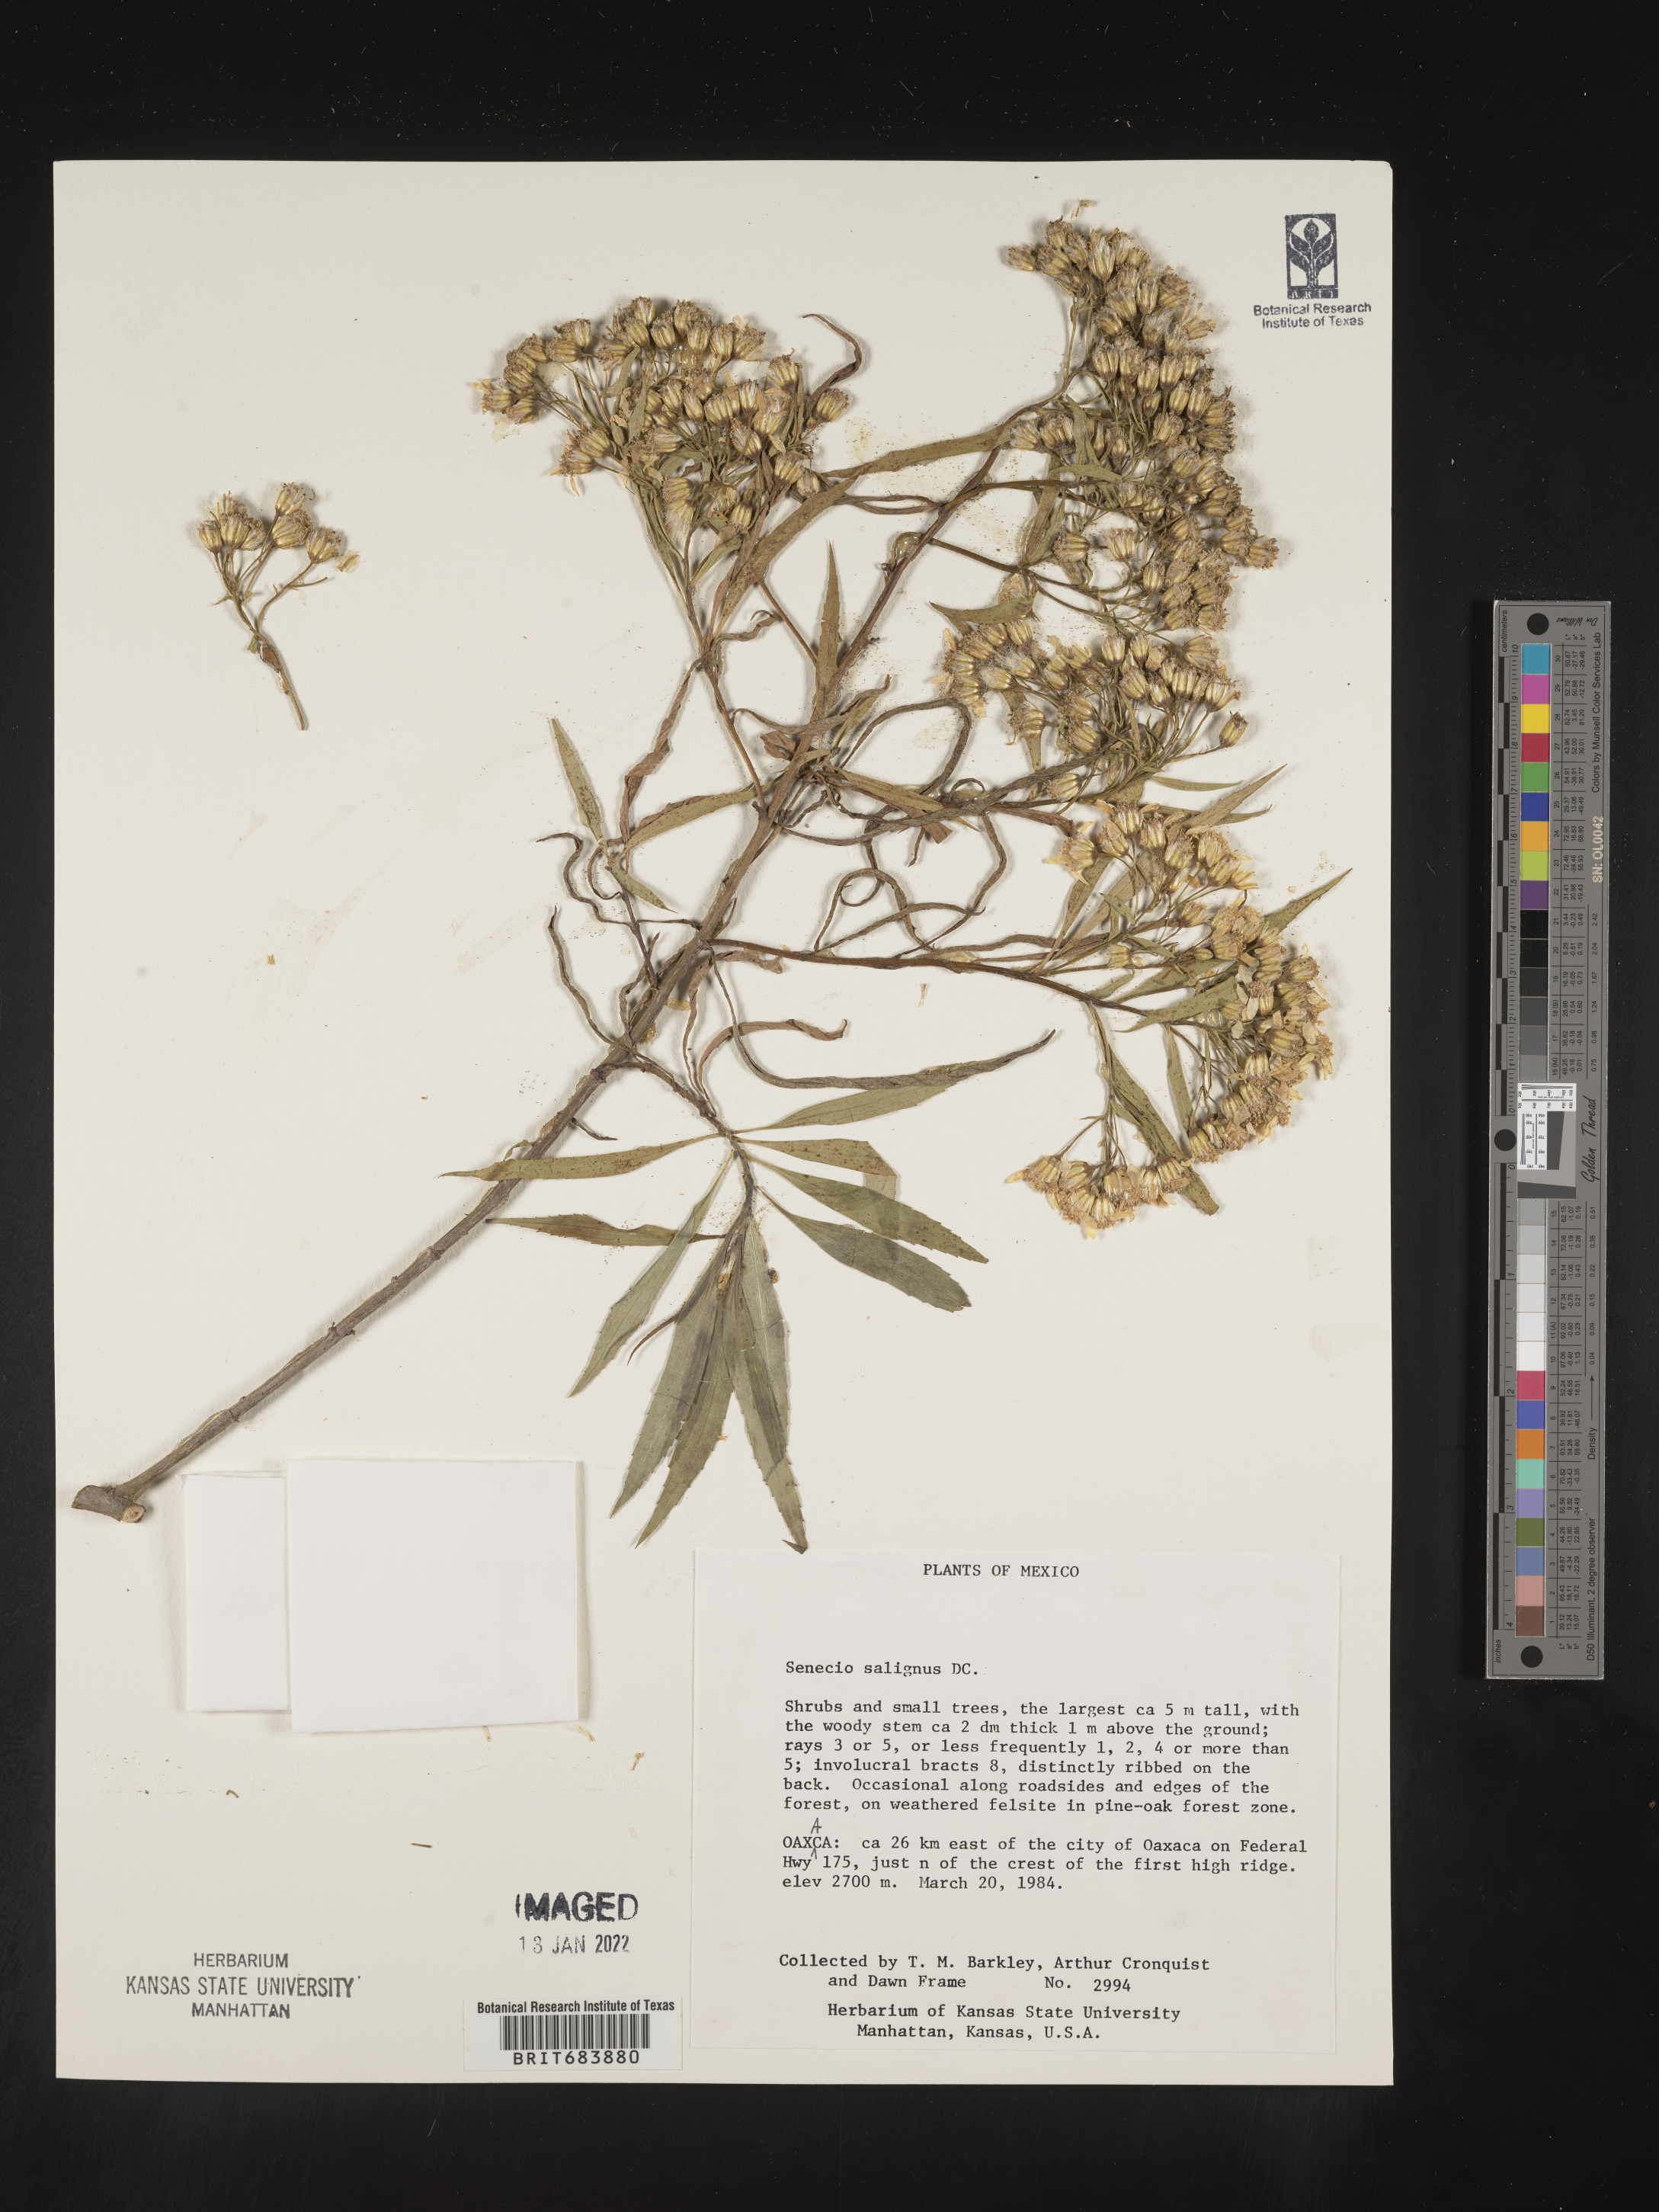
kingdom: Plantae
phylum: Tracheophyta
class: Magnoliopsida
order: Asterales
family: Asteraceae
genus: Barkleyanthus
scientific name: Barkleyanthus
